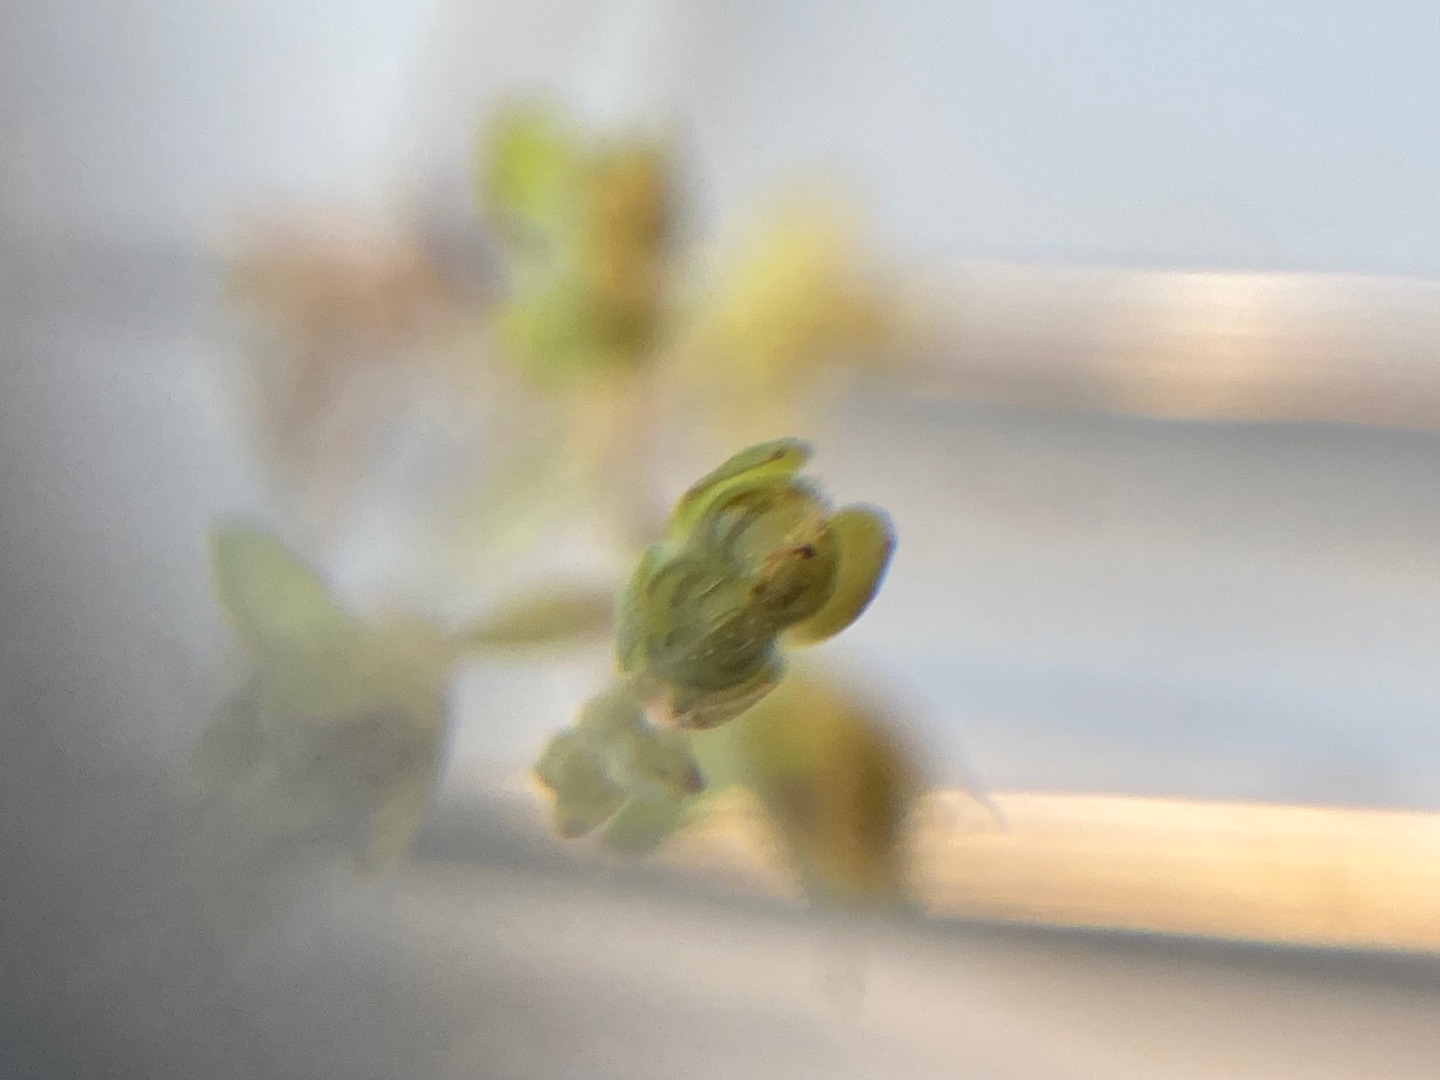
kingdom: Plantae
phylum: Tracheophyta
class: Magnoliopsida
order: Lamiales
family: Plantaginaceae
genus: Veronica
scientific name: Veronica catenata
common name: Vand-ærenpris
